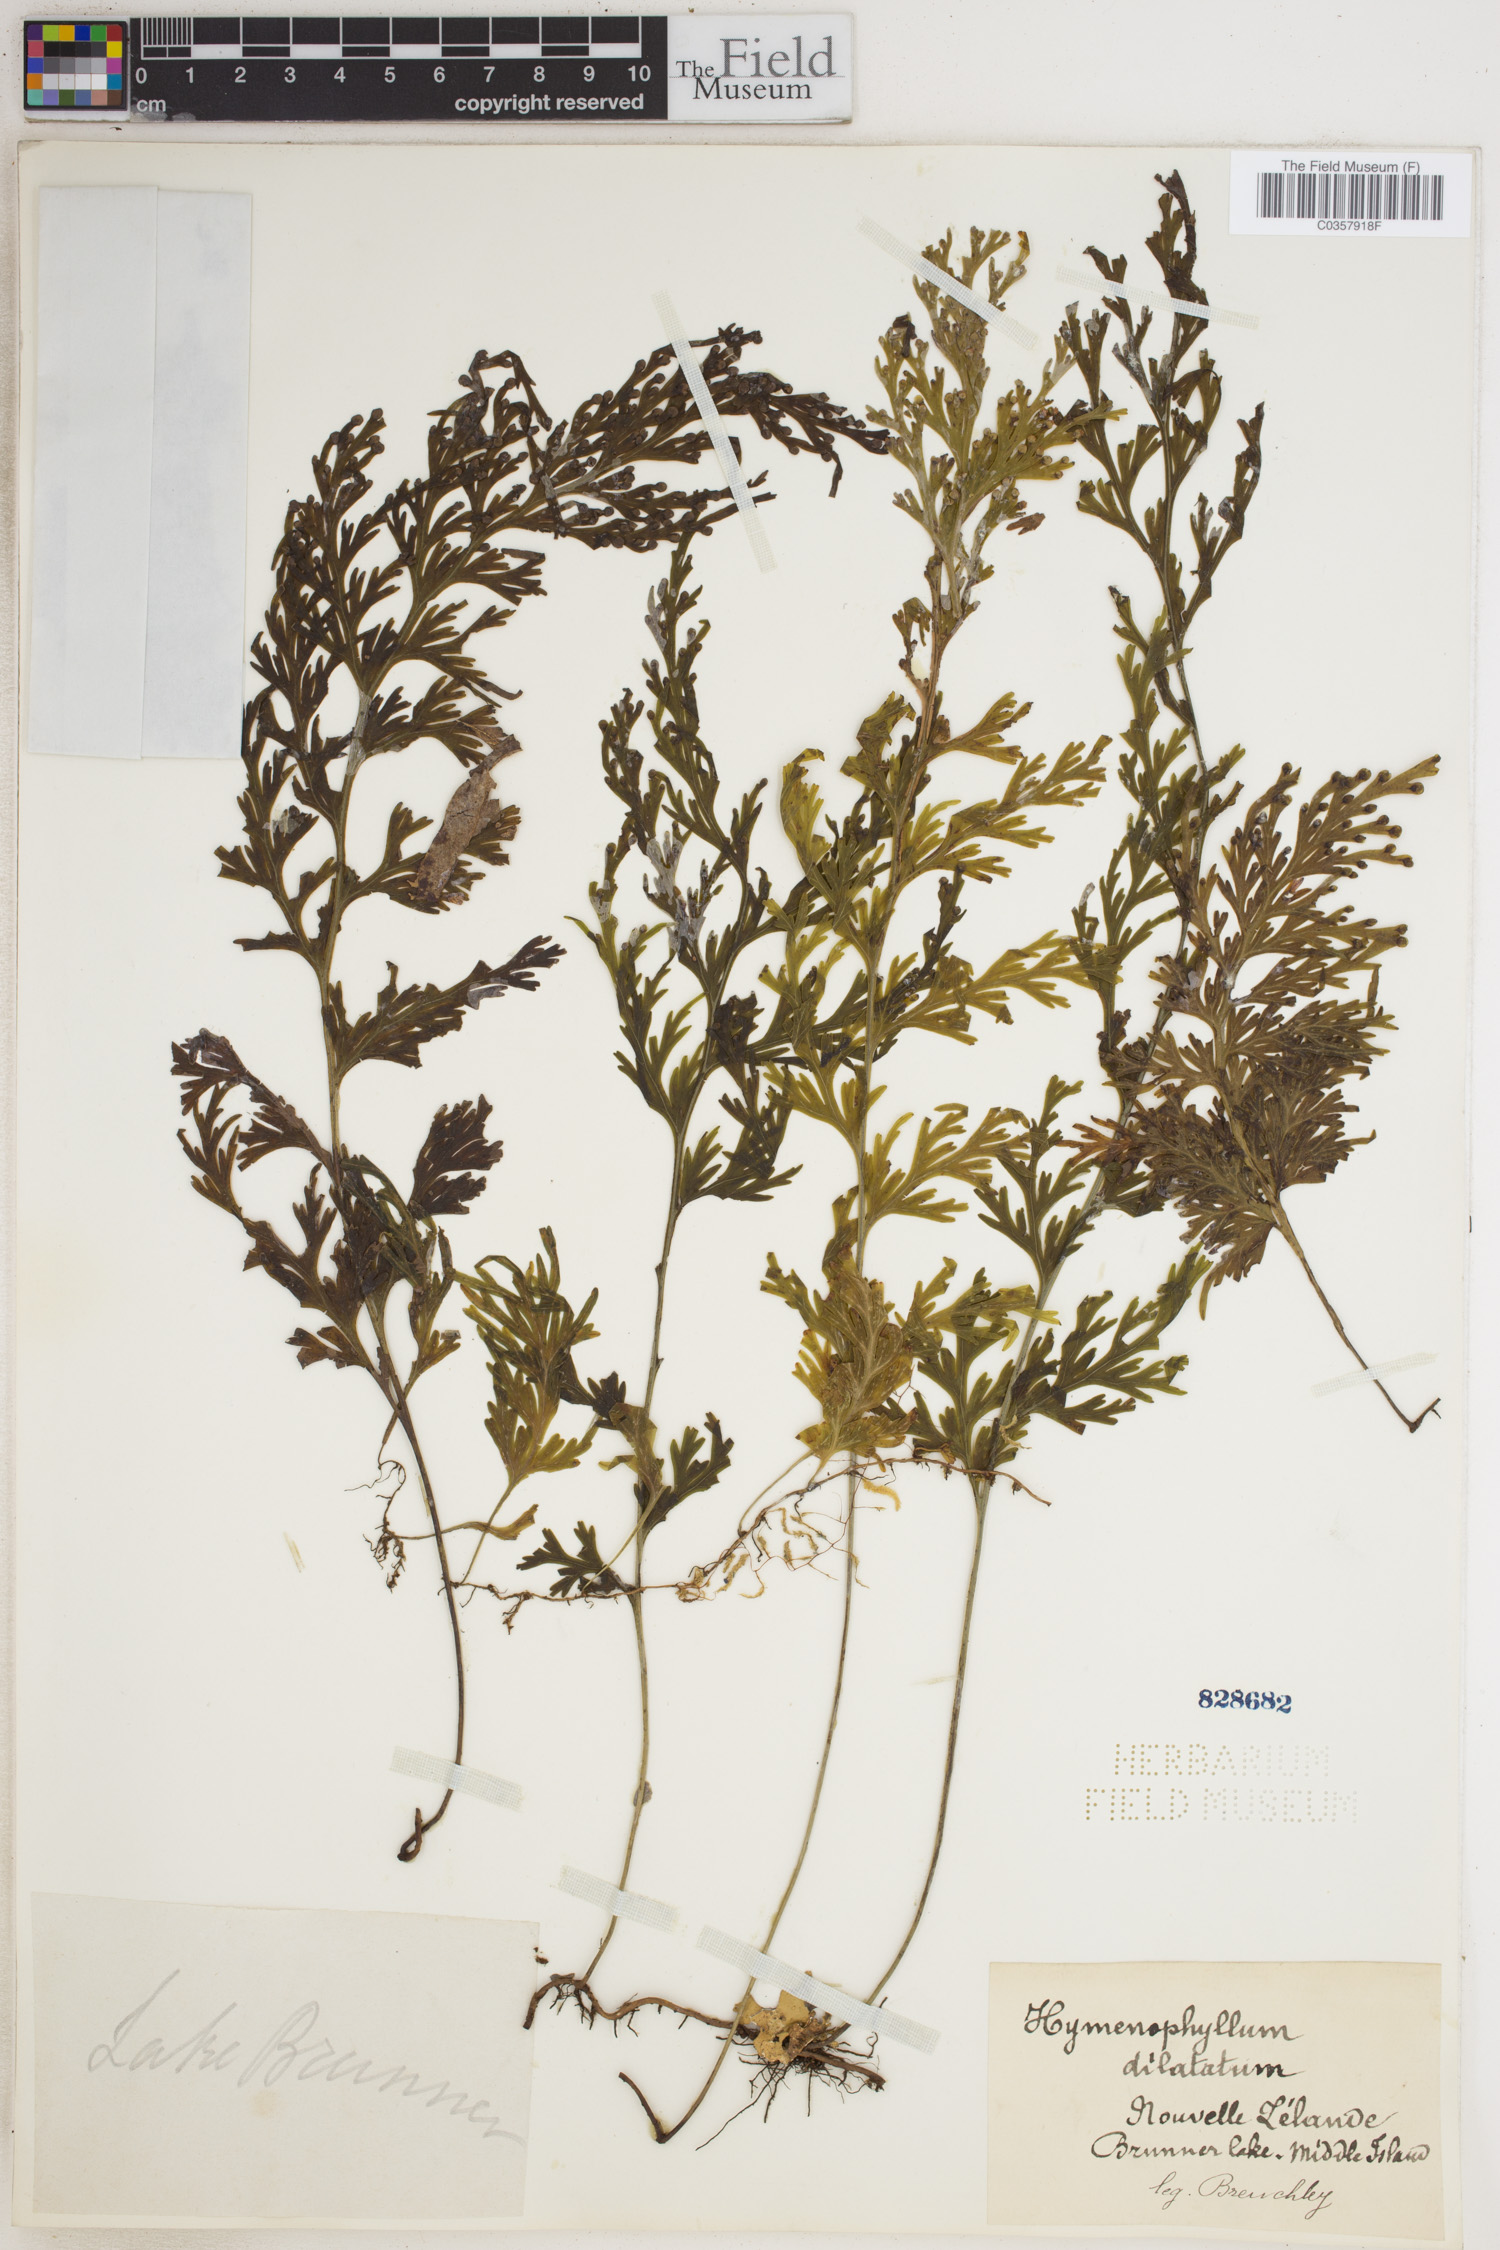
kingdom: Plantae
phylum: Tracheophyta
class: Polypodiopsida
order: Hymenophyllales
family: Hymenophyllaceae
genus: Hymenophyllum
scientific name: Hymenophyllum dilatatum
